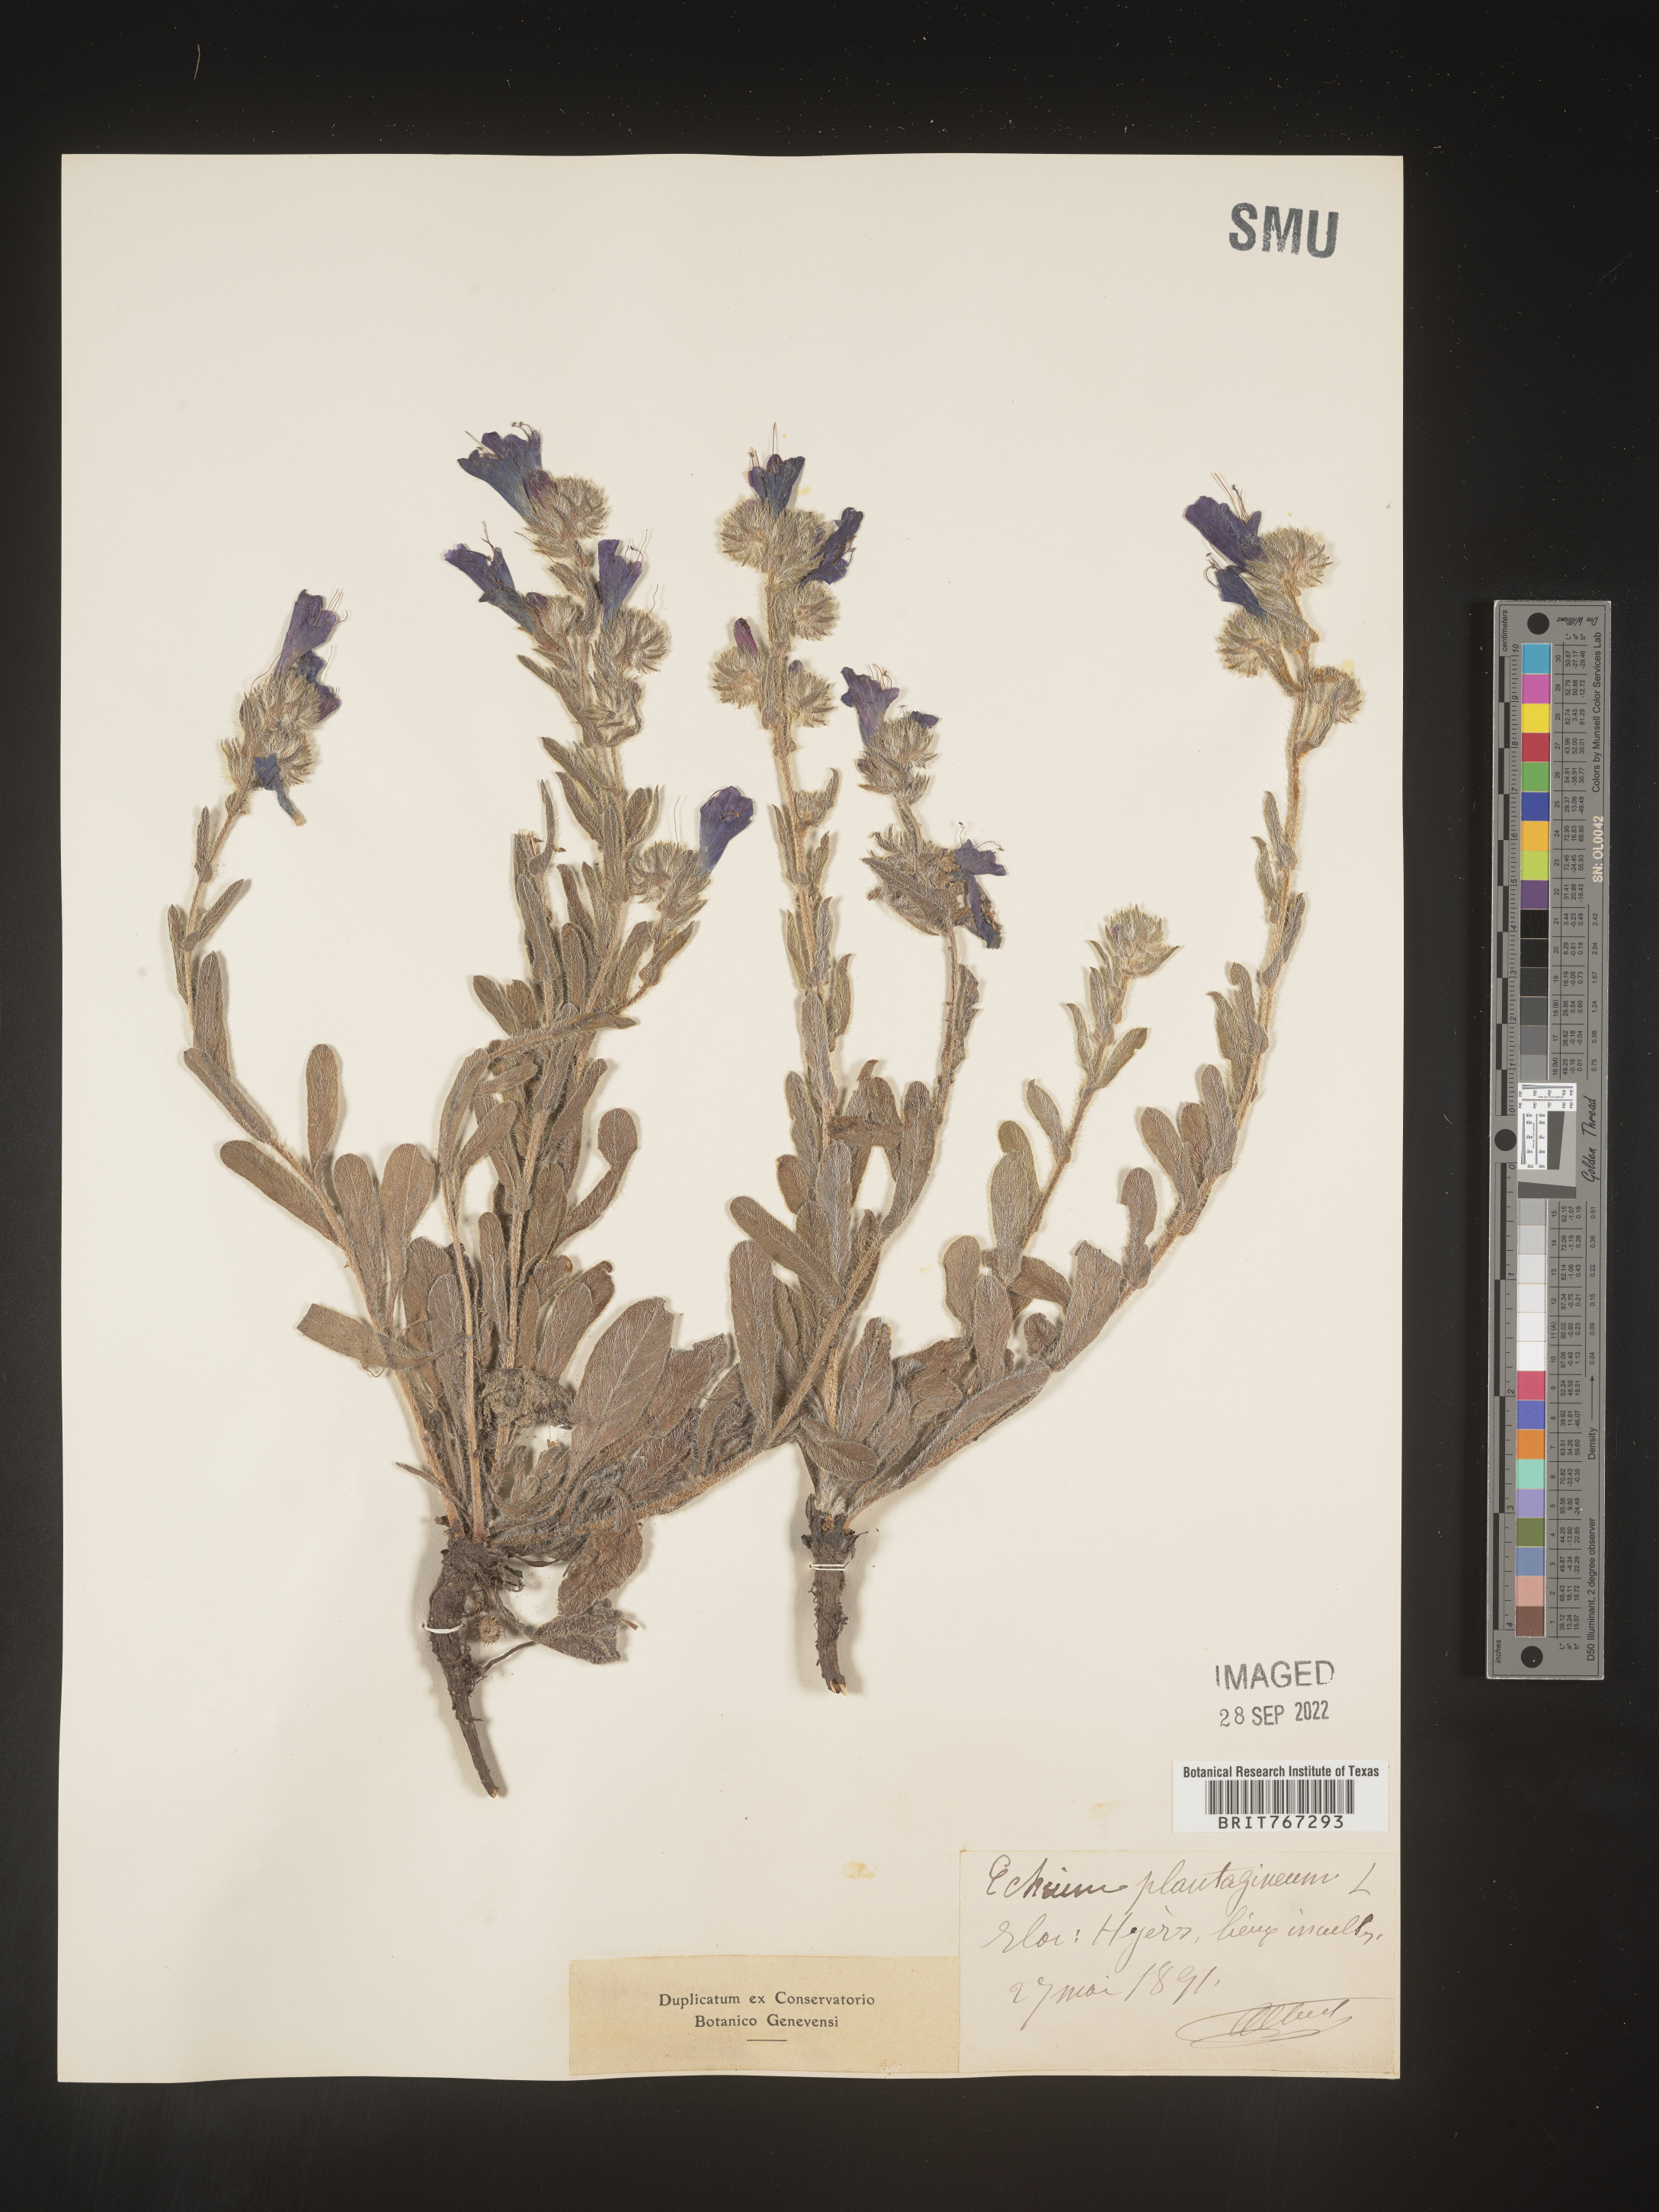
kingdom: Plantae
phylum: Tracheophyta
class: Magnoliopsida
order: Boraginales
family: Boraginaceae
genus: Echium
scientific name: Echium
